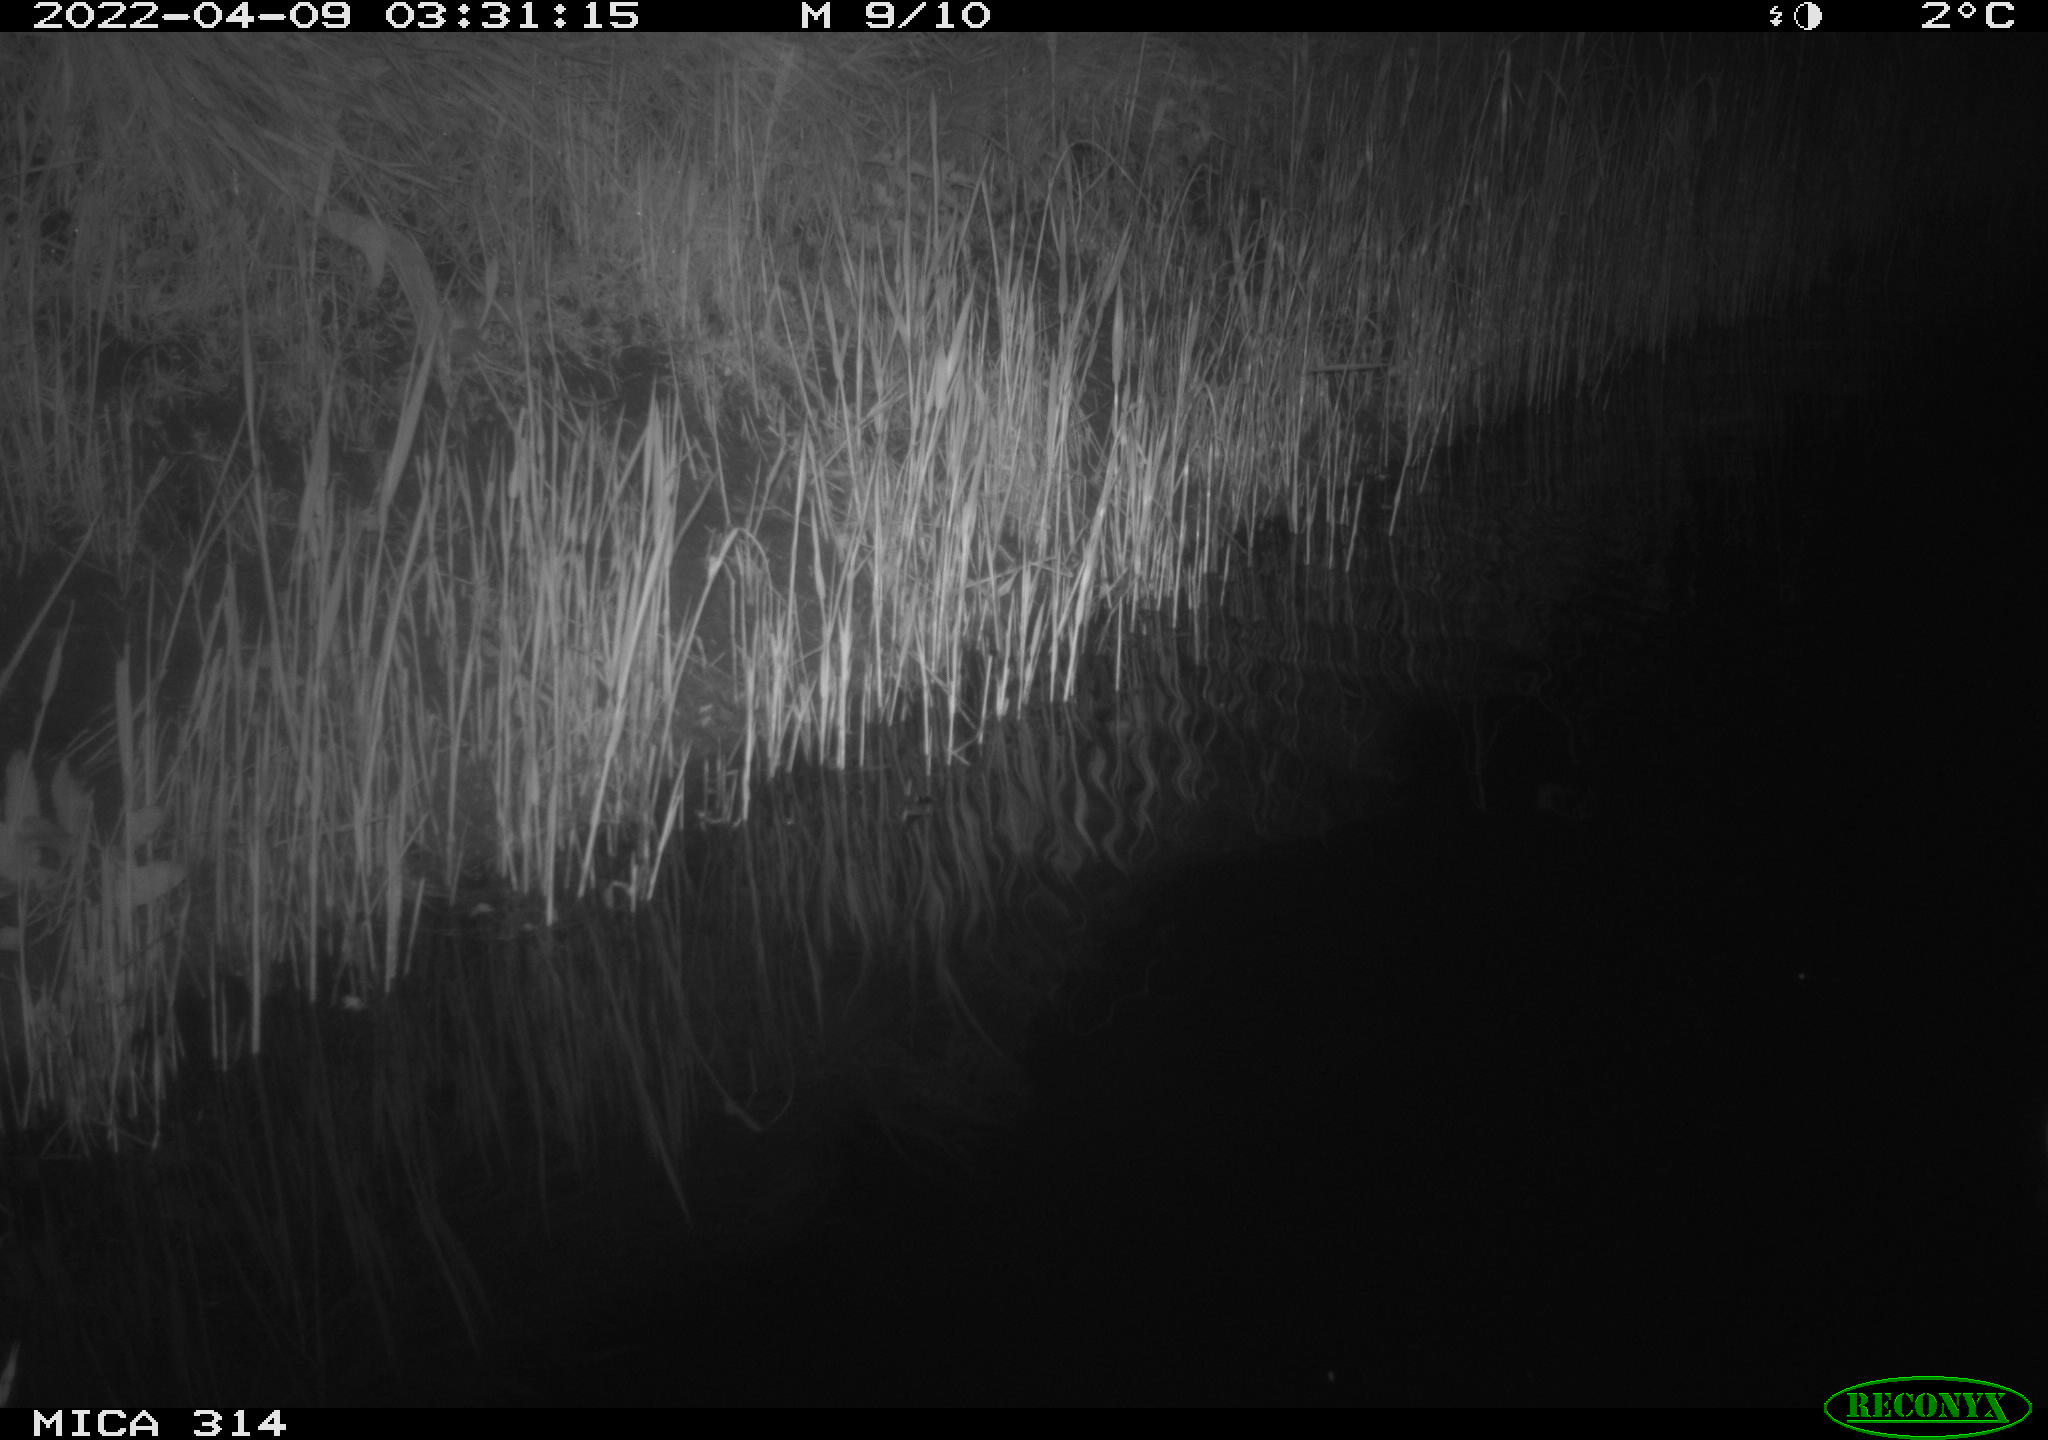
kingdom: Animalia
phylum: Chordata
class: Aves
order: Anseriformes
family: Anatidae
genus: Anas
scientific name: Anas platyrhynchos
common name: Mallard
